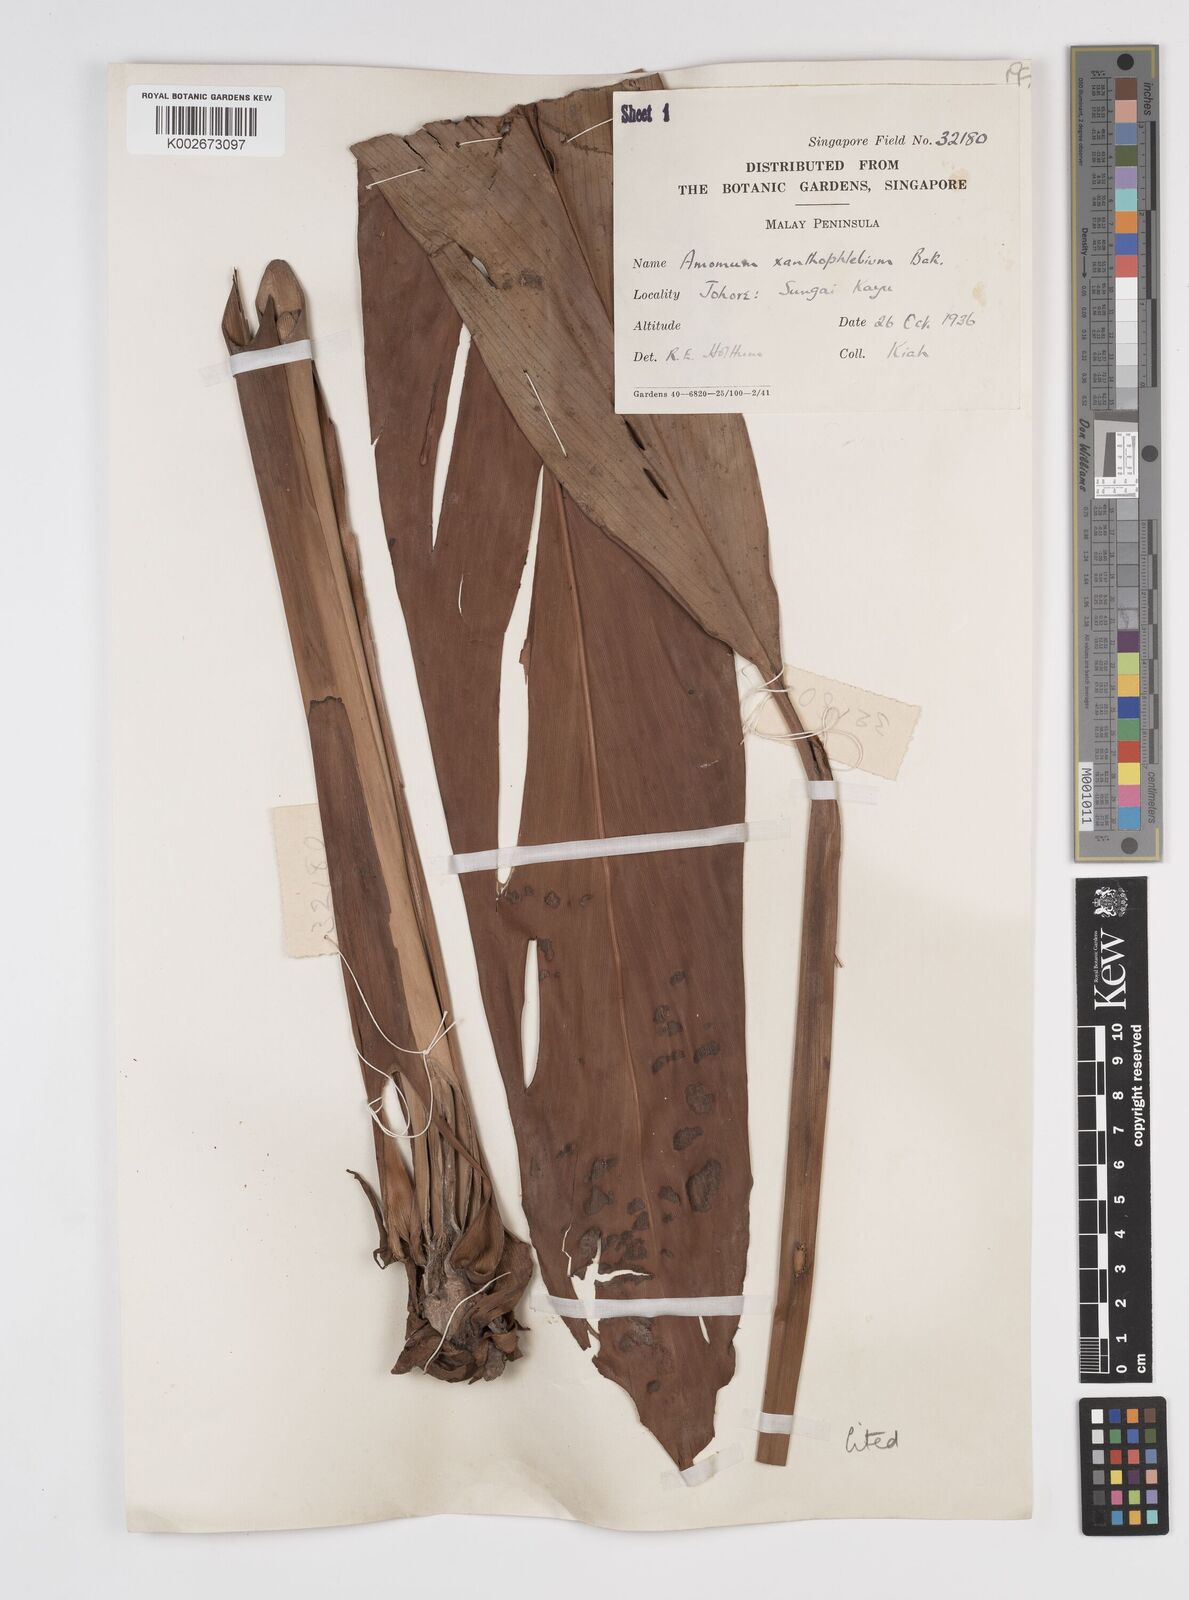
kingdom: Plantae
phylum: Tracheophyta
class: Liliopsida
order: Zingiberales
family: Zingiberaceae
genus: Conamomum
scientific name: Conamomum xanthophlebium
